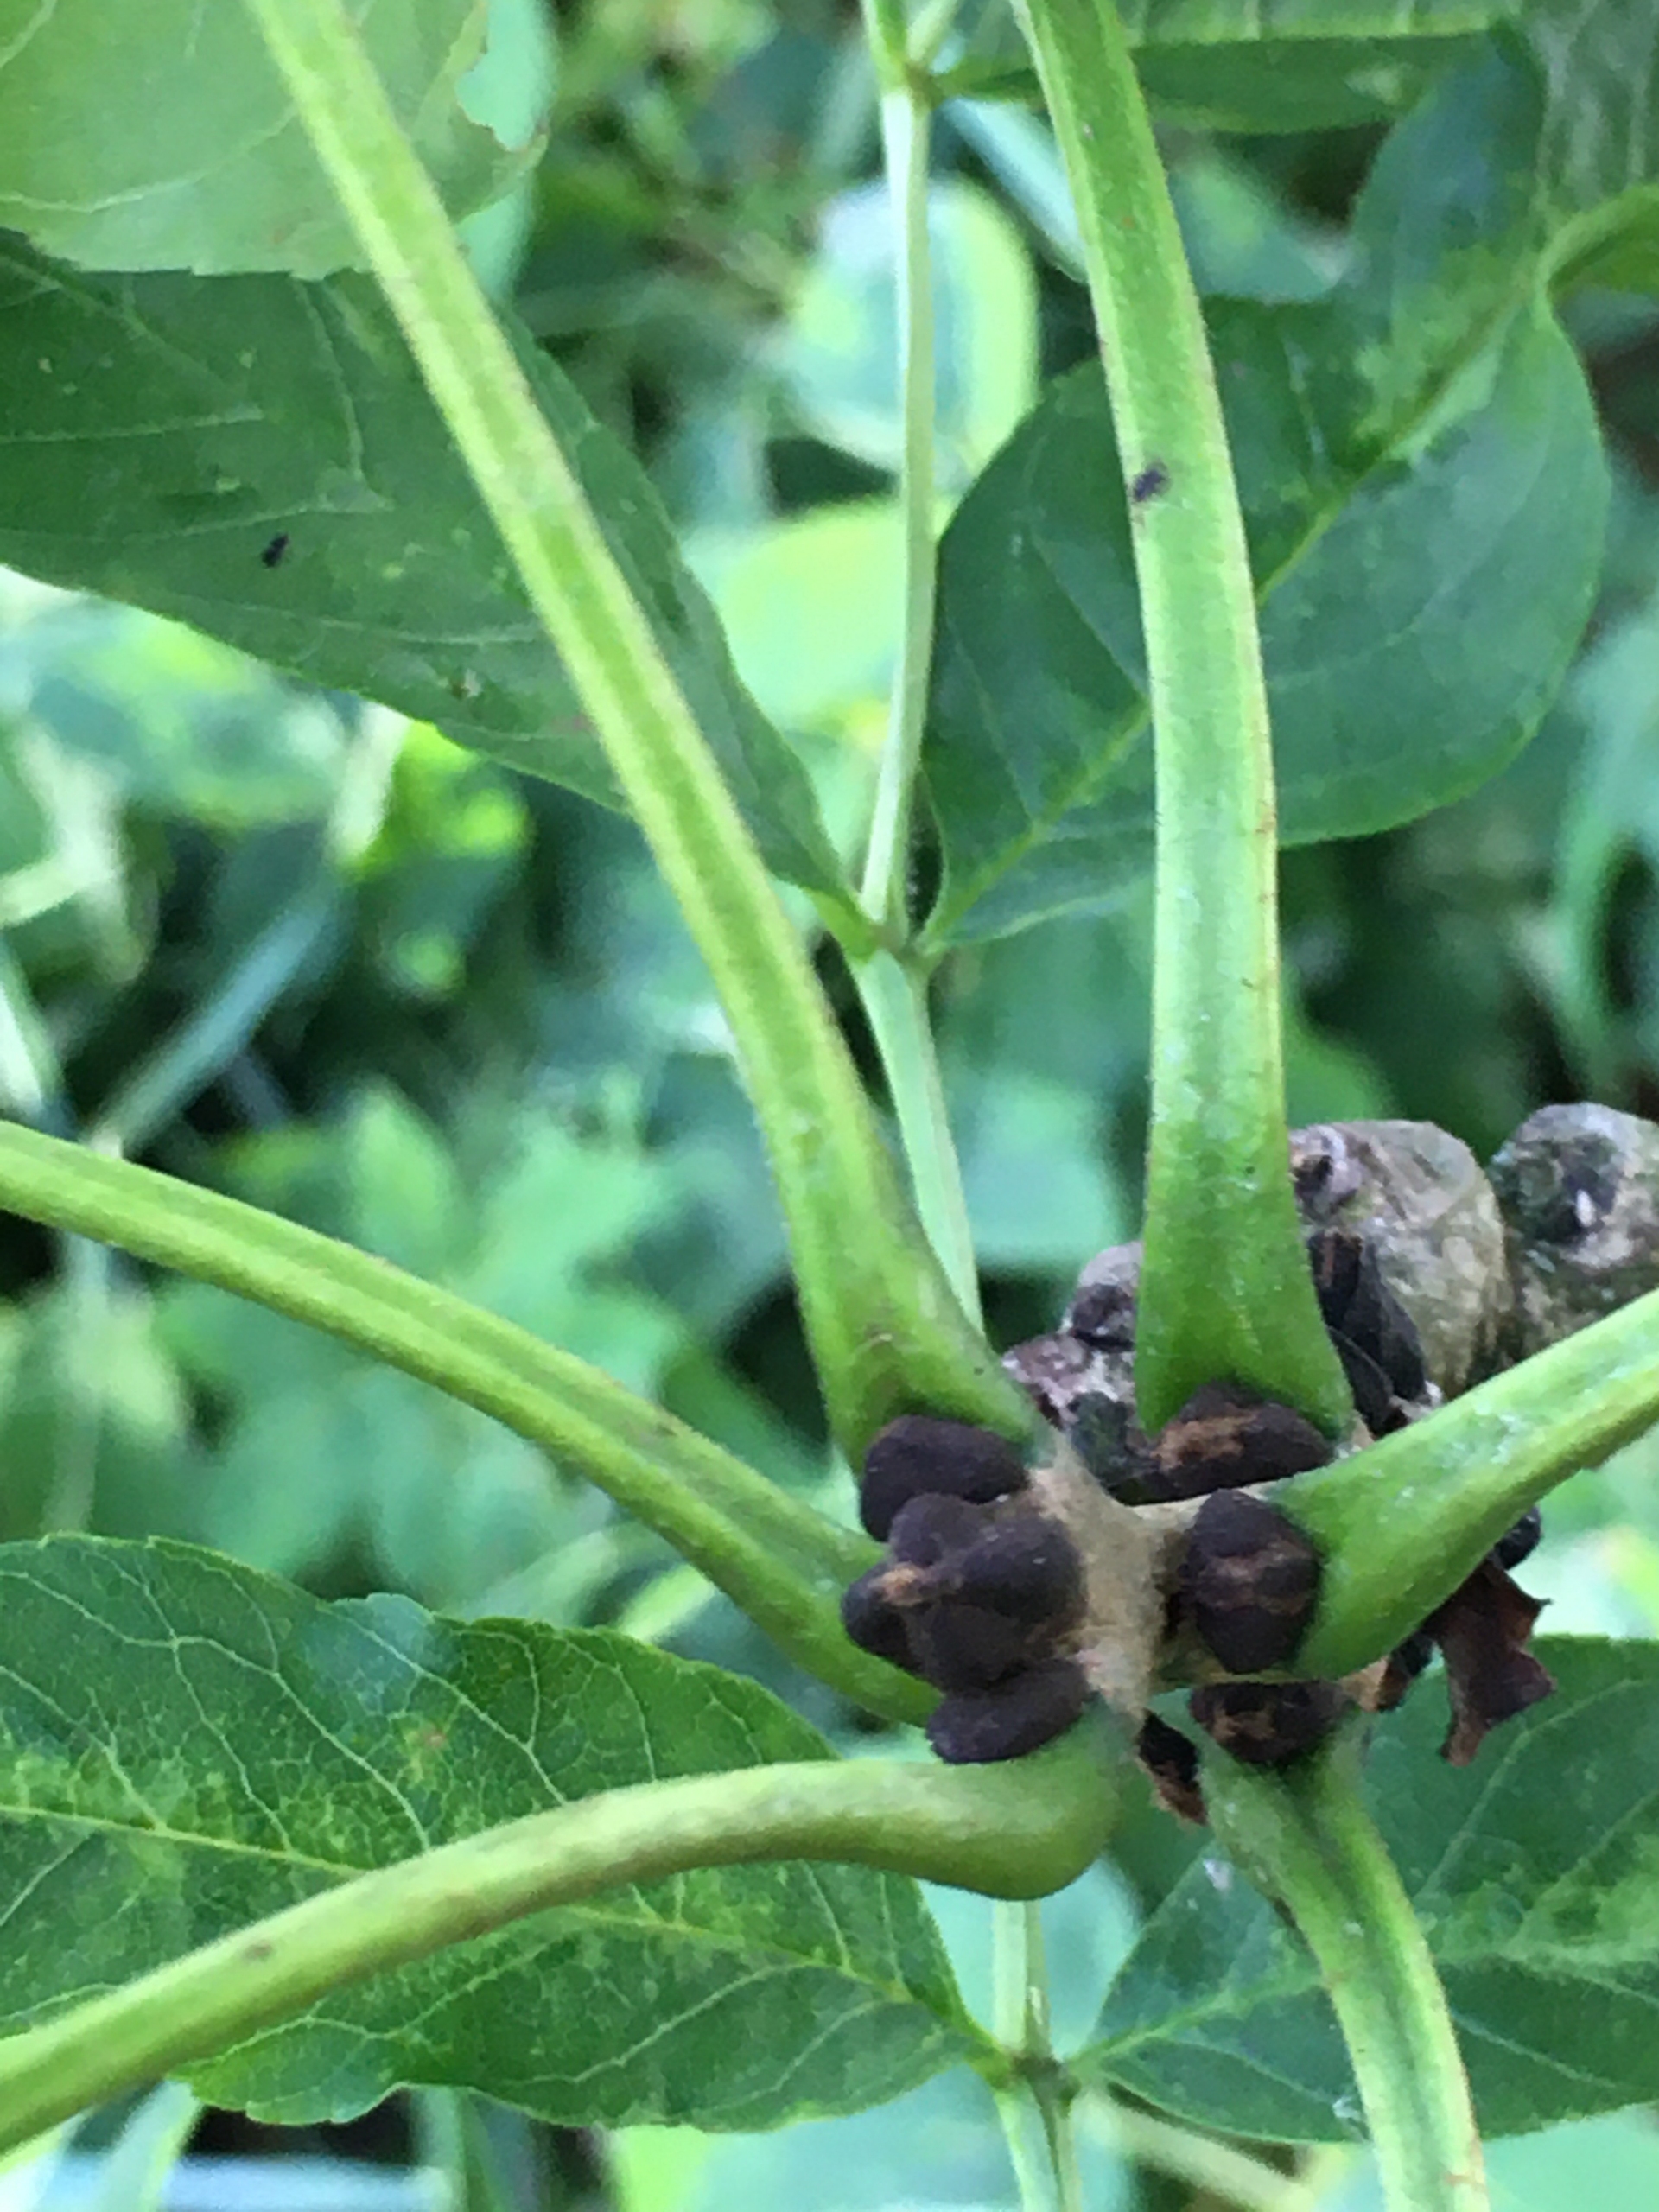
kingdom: Plantae
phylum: Tracheophyta
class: Magnoliopsida
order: Lamiales
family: Oleaceae
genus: Fraxinus
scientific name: Fraxinus excelsior
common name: Ask
